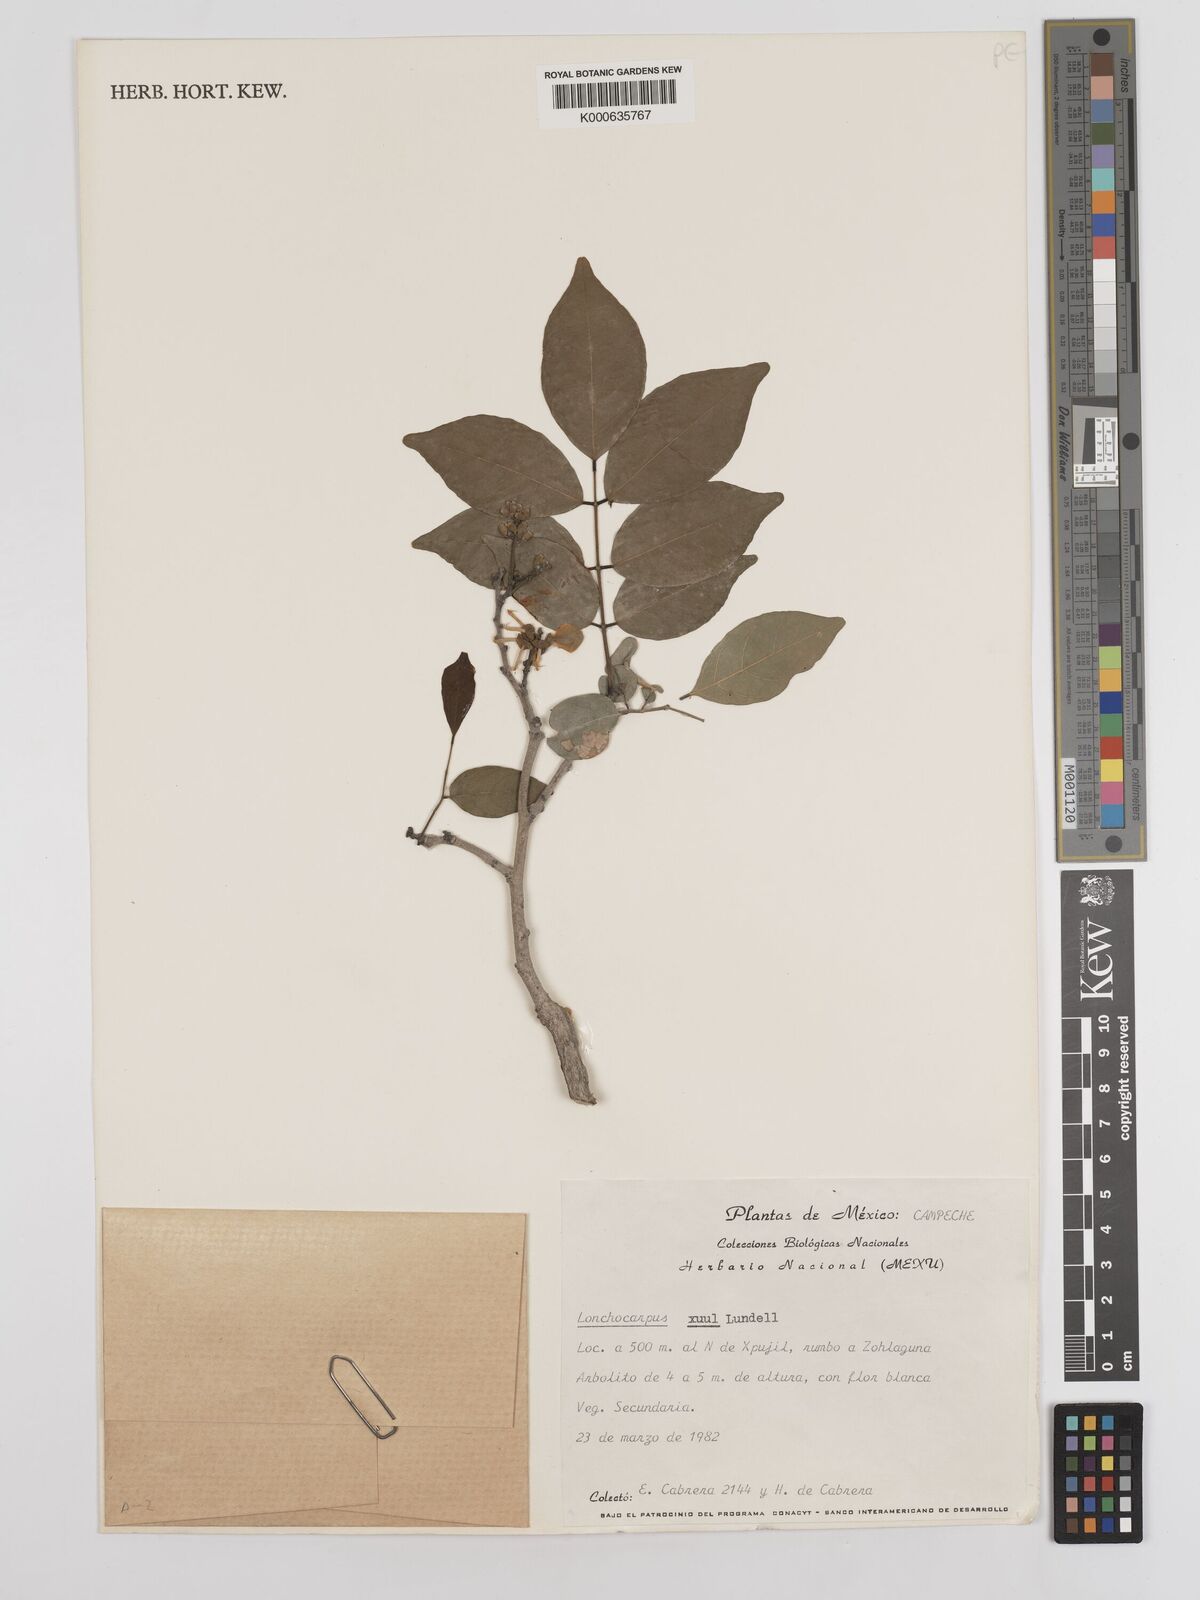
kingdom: Plantae
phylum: Tracheophyta
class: Magnoliopsida
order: Fabales
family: Fabaceae
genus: Lonchocarpus
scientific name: Lonchocarpus guatemalensis
